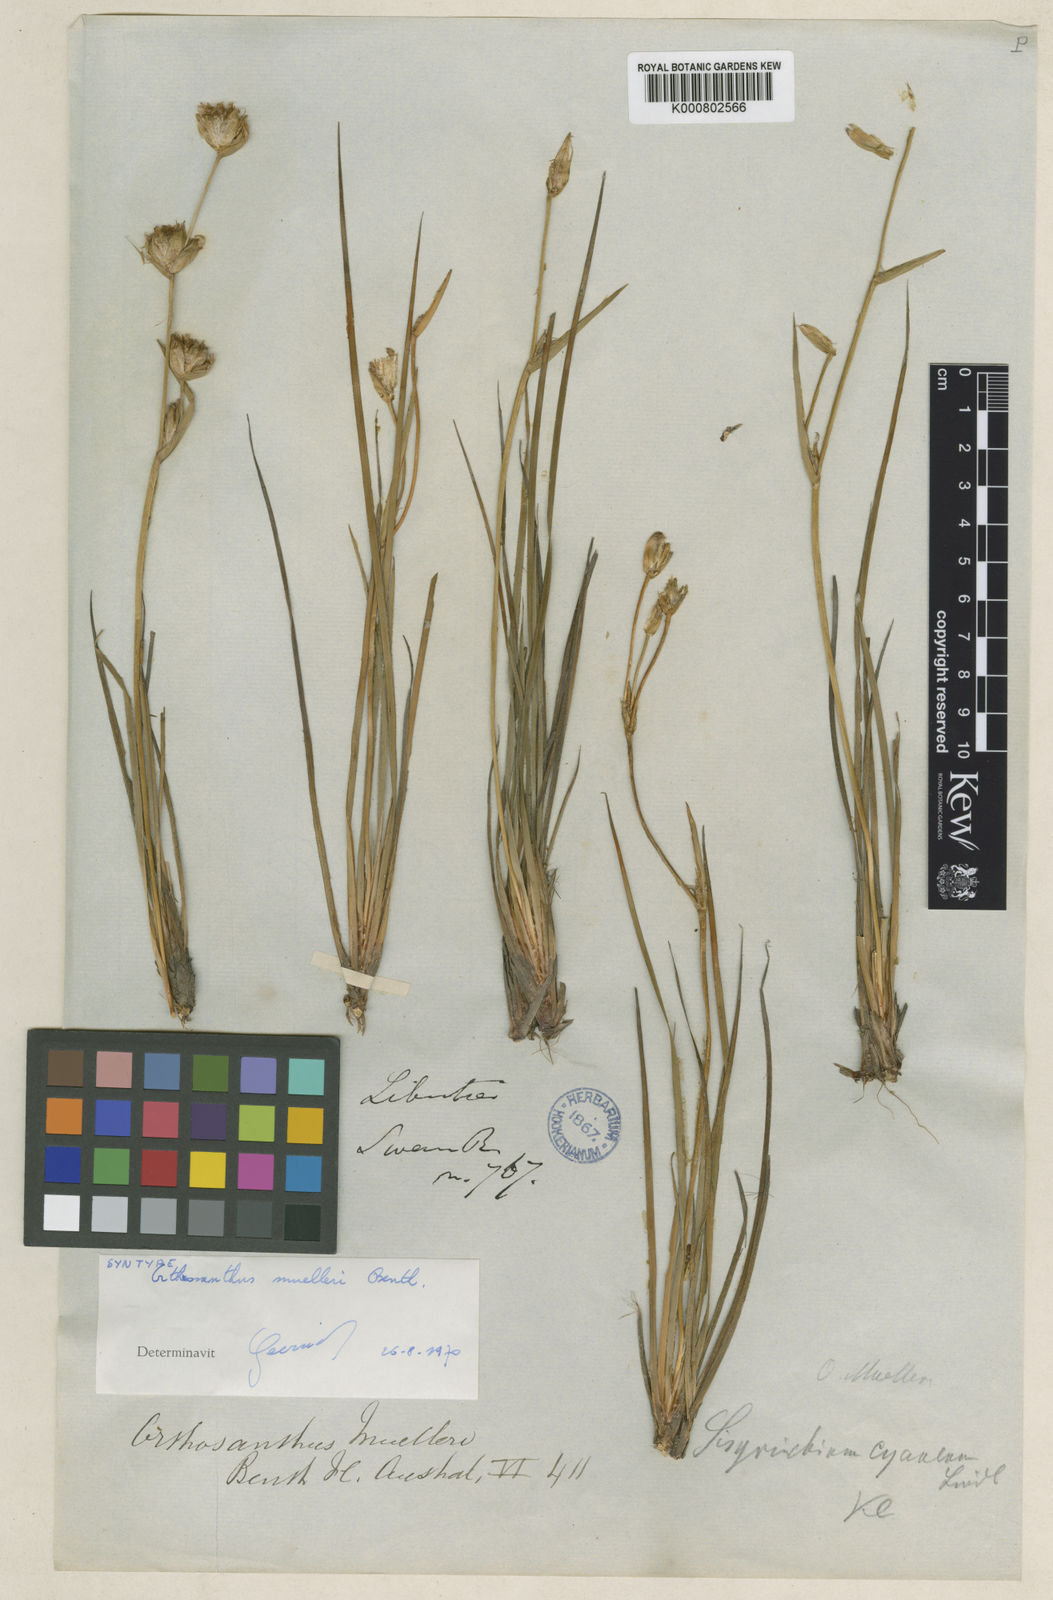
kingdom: Plantae
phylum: Tracheophyta
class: Liliopsida
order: Asparagales
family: Iridaceae
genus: Orthrosanthus
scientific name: Orthrosanthus muelleri
